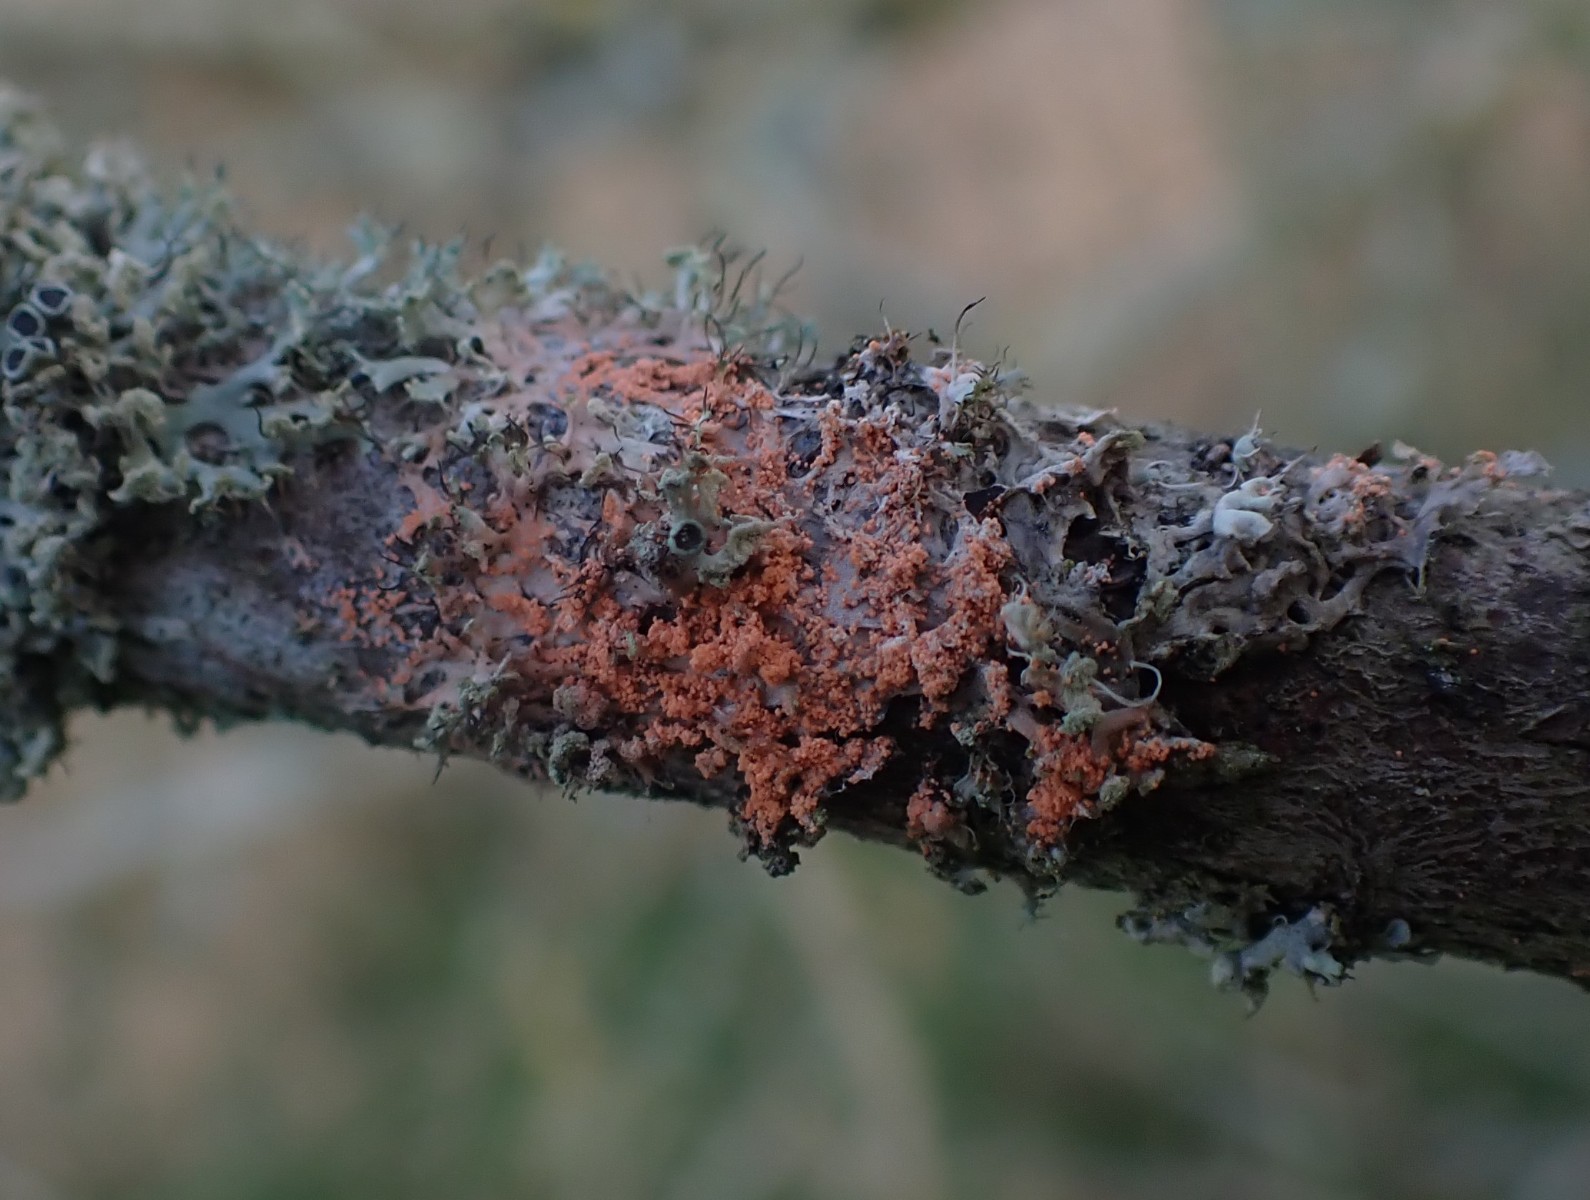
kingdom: Fungi
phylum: Basidiomycota
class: Agaricomycetes
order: Corticiales
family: Corticiaceae
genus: Erythricium
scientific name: Erythricium aurantiacum
